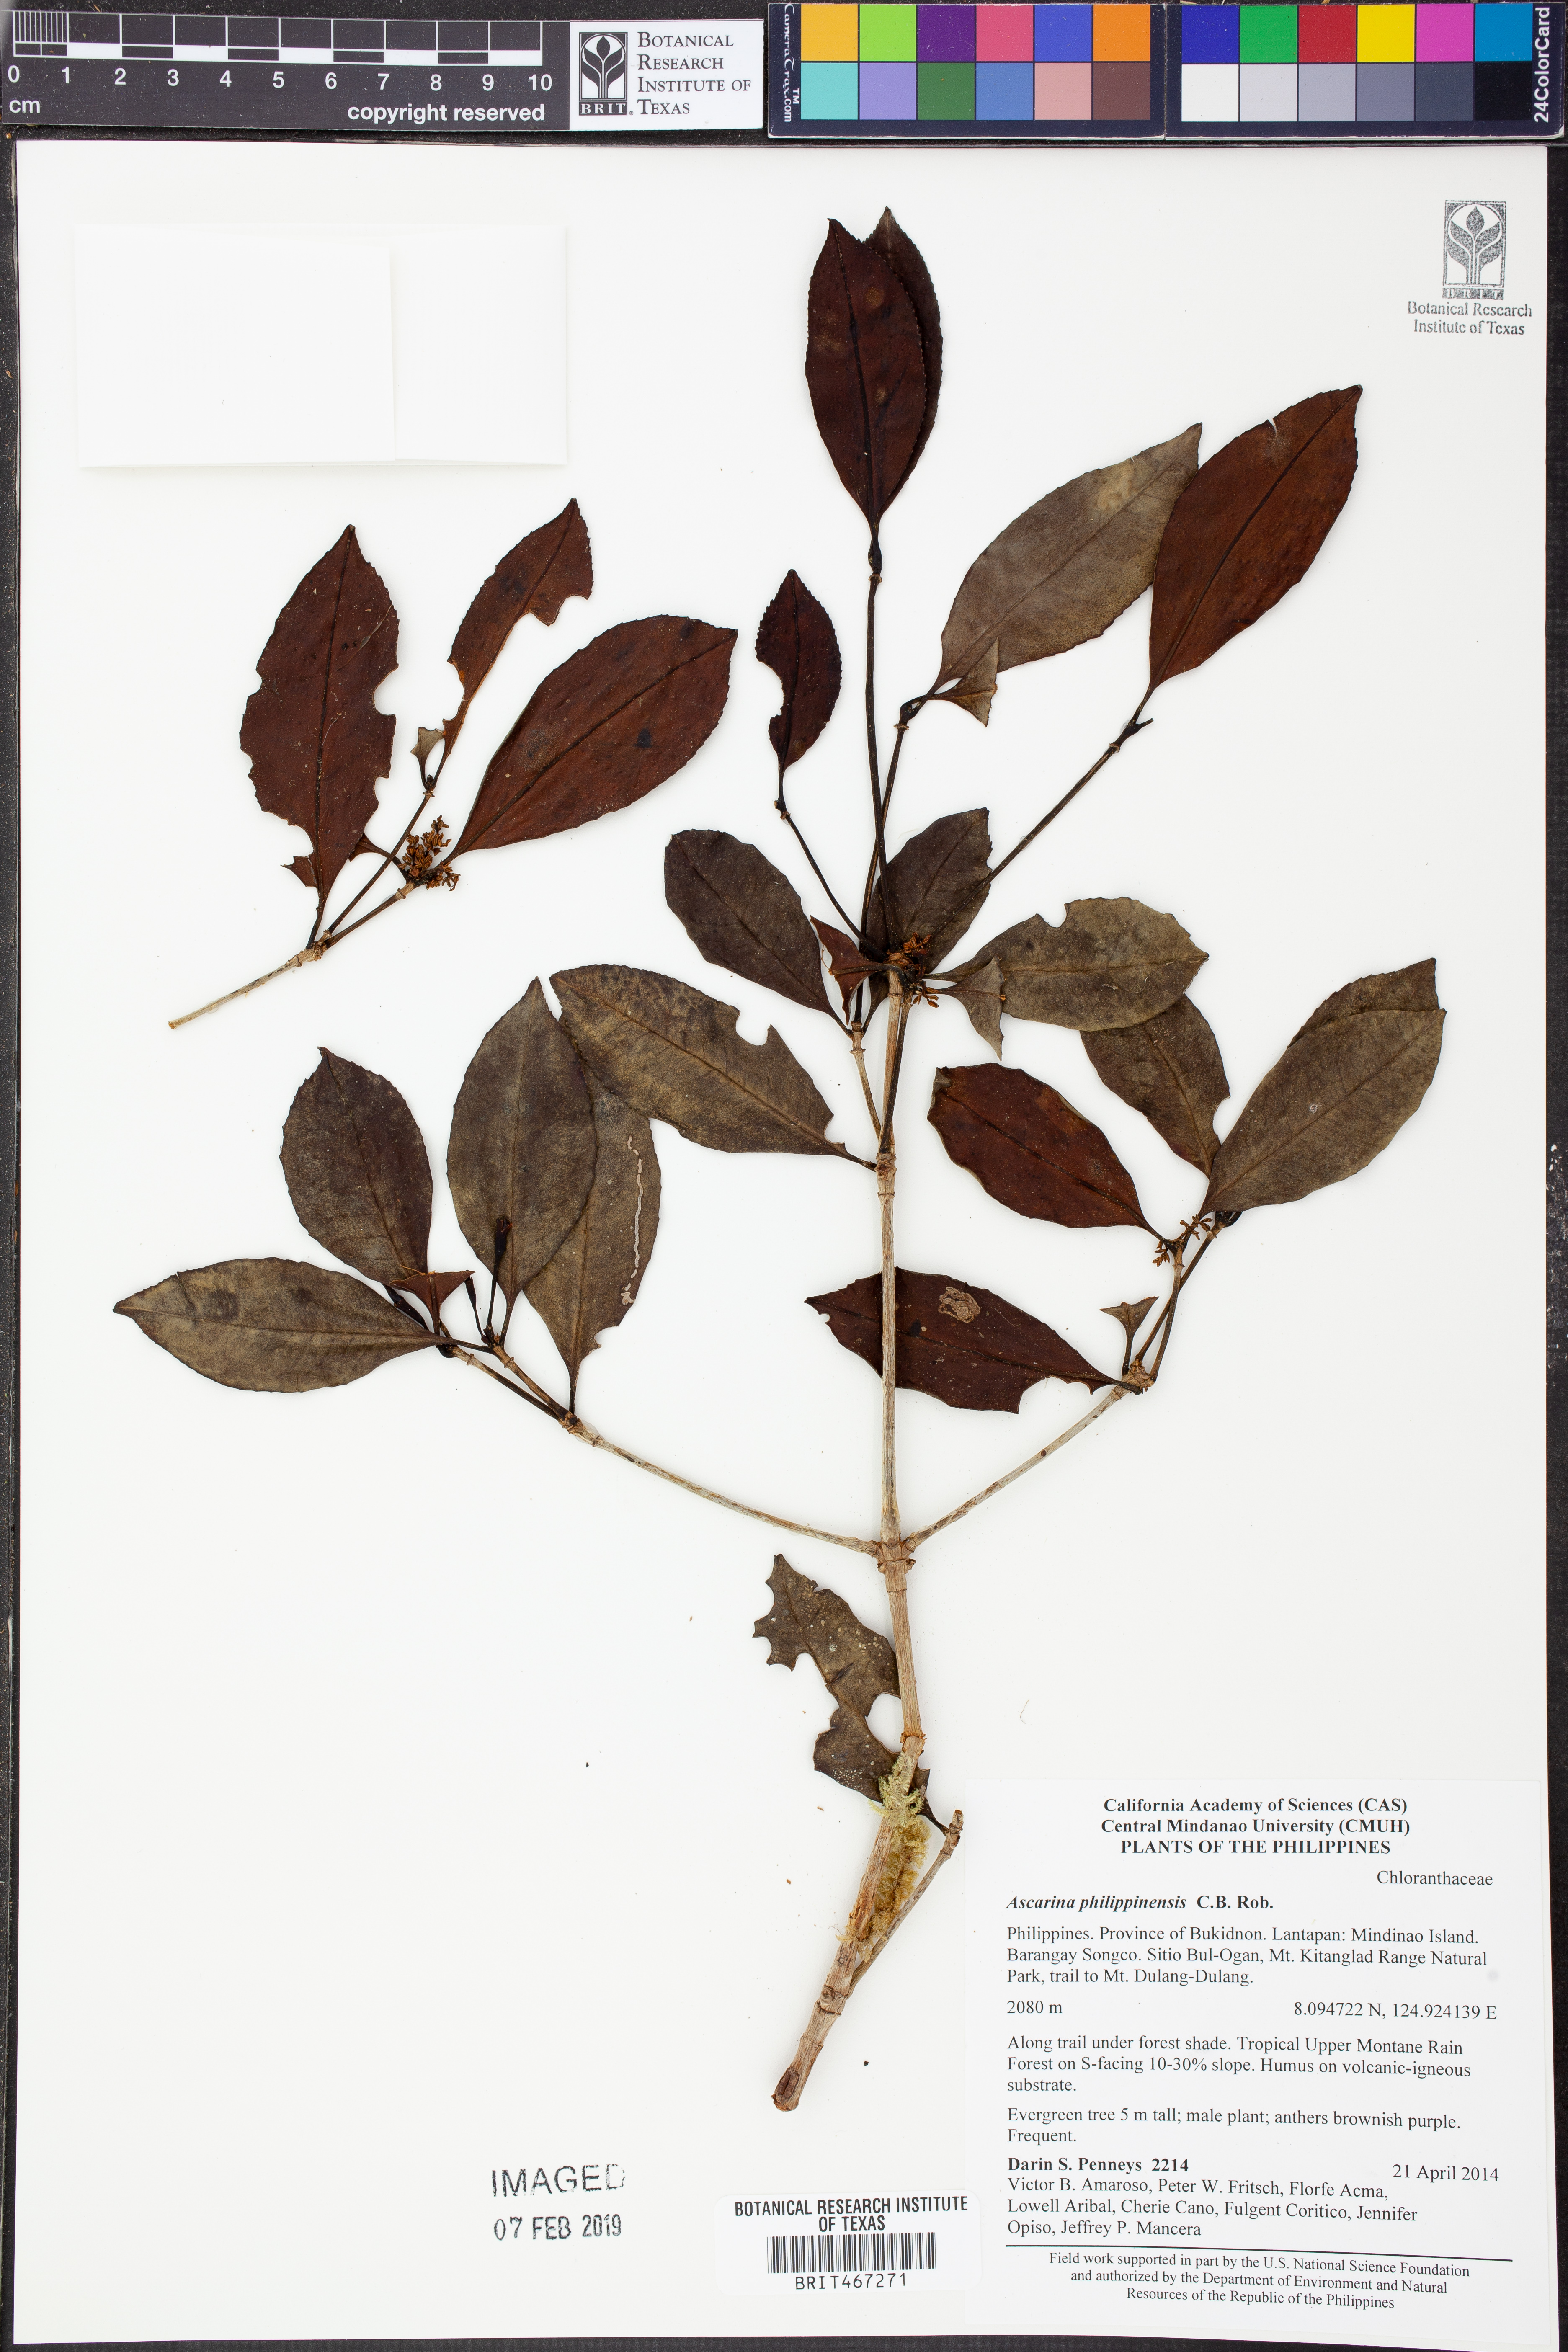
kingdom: Plantae
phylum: Tracheophyta
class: Magnoliopsida
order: Chloranthales
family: Chloranthaceae
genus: Ascarina
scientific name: Ascarina philippinensis
